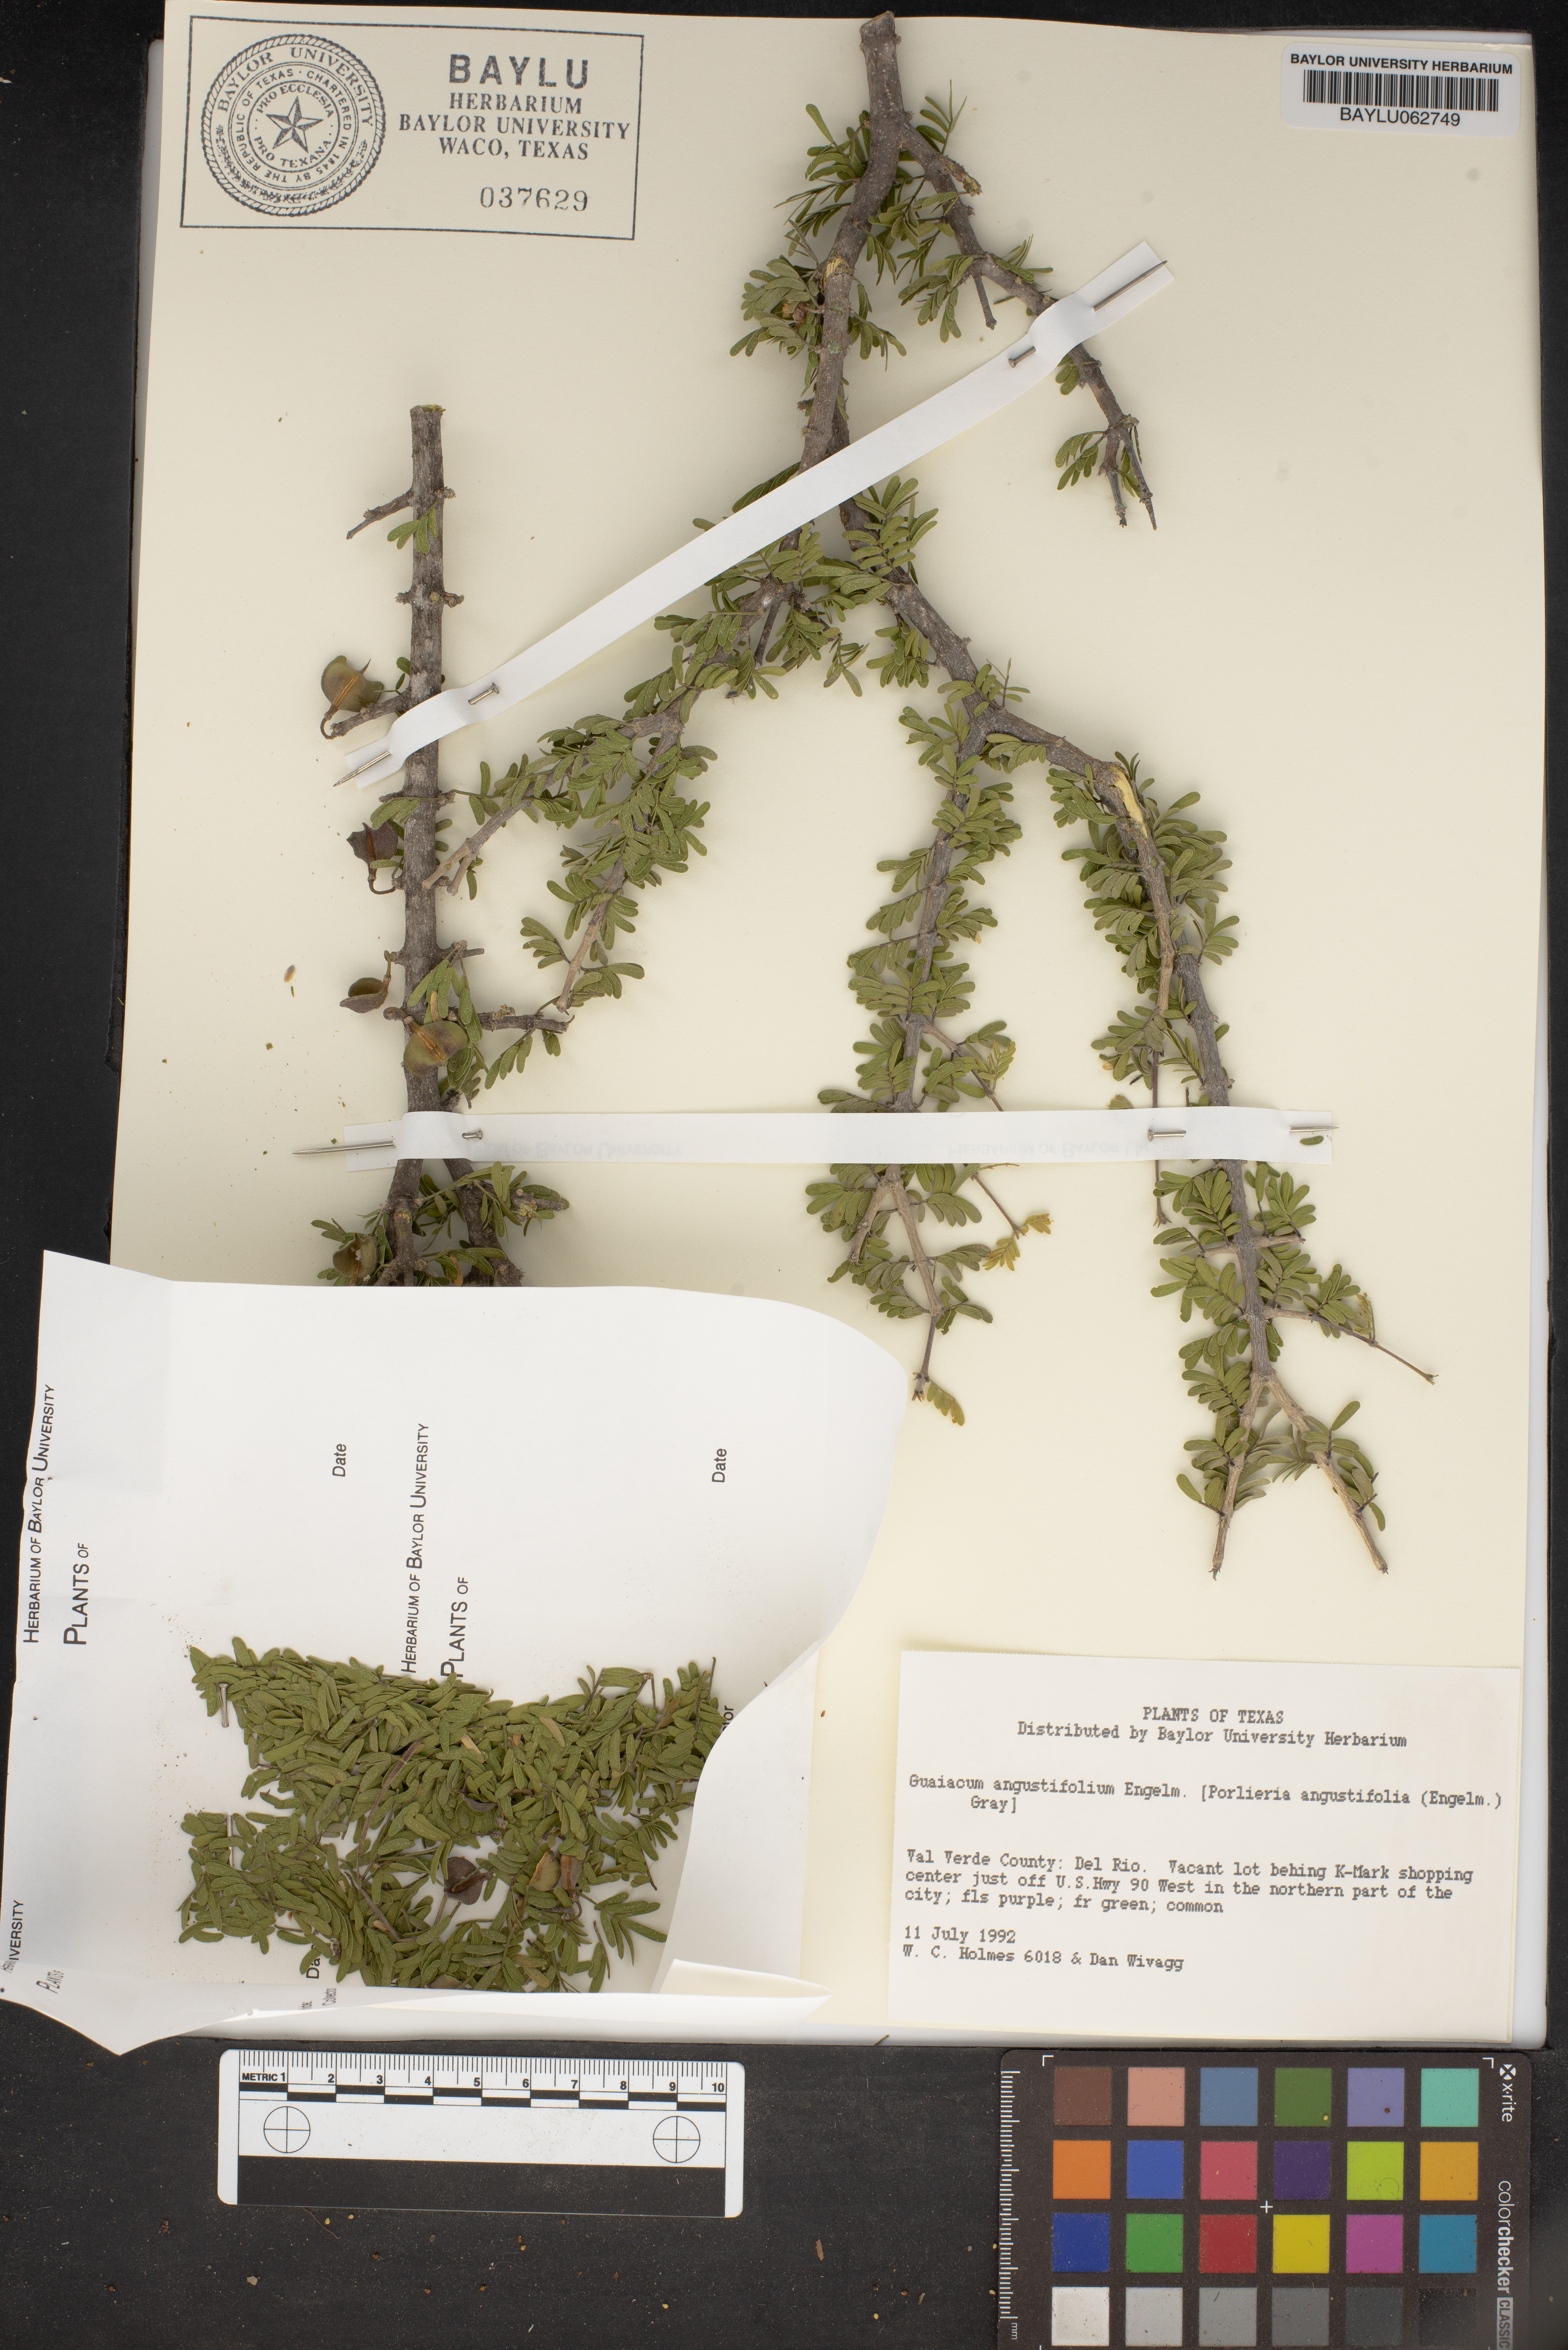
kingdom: Plantae
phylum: Tracheophyta
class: Magnoliopsida
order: Zygophyllales
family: Zygophyllaceae
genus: Porlieria
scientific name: Porlieria angustifolia
